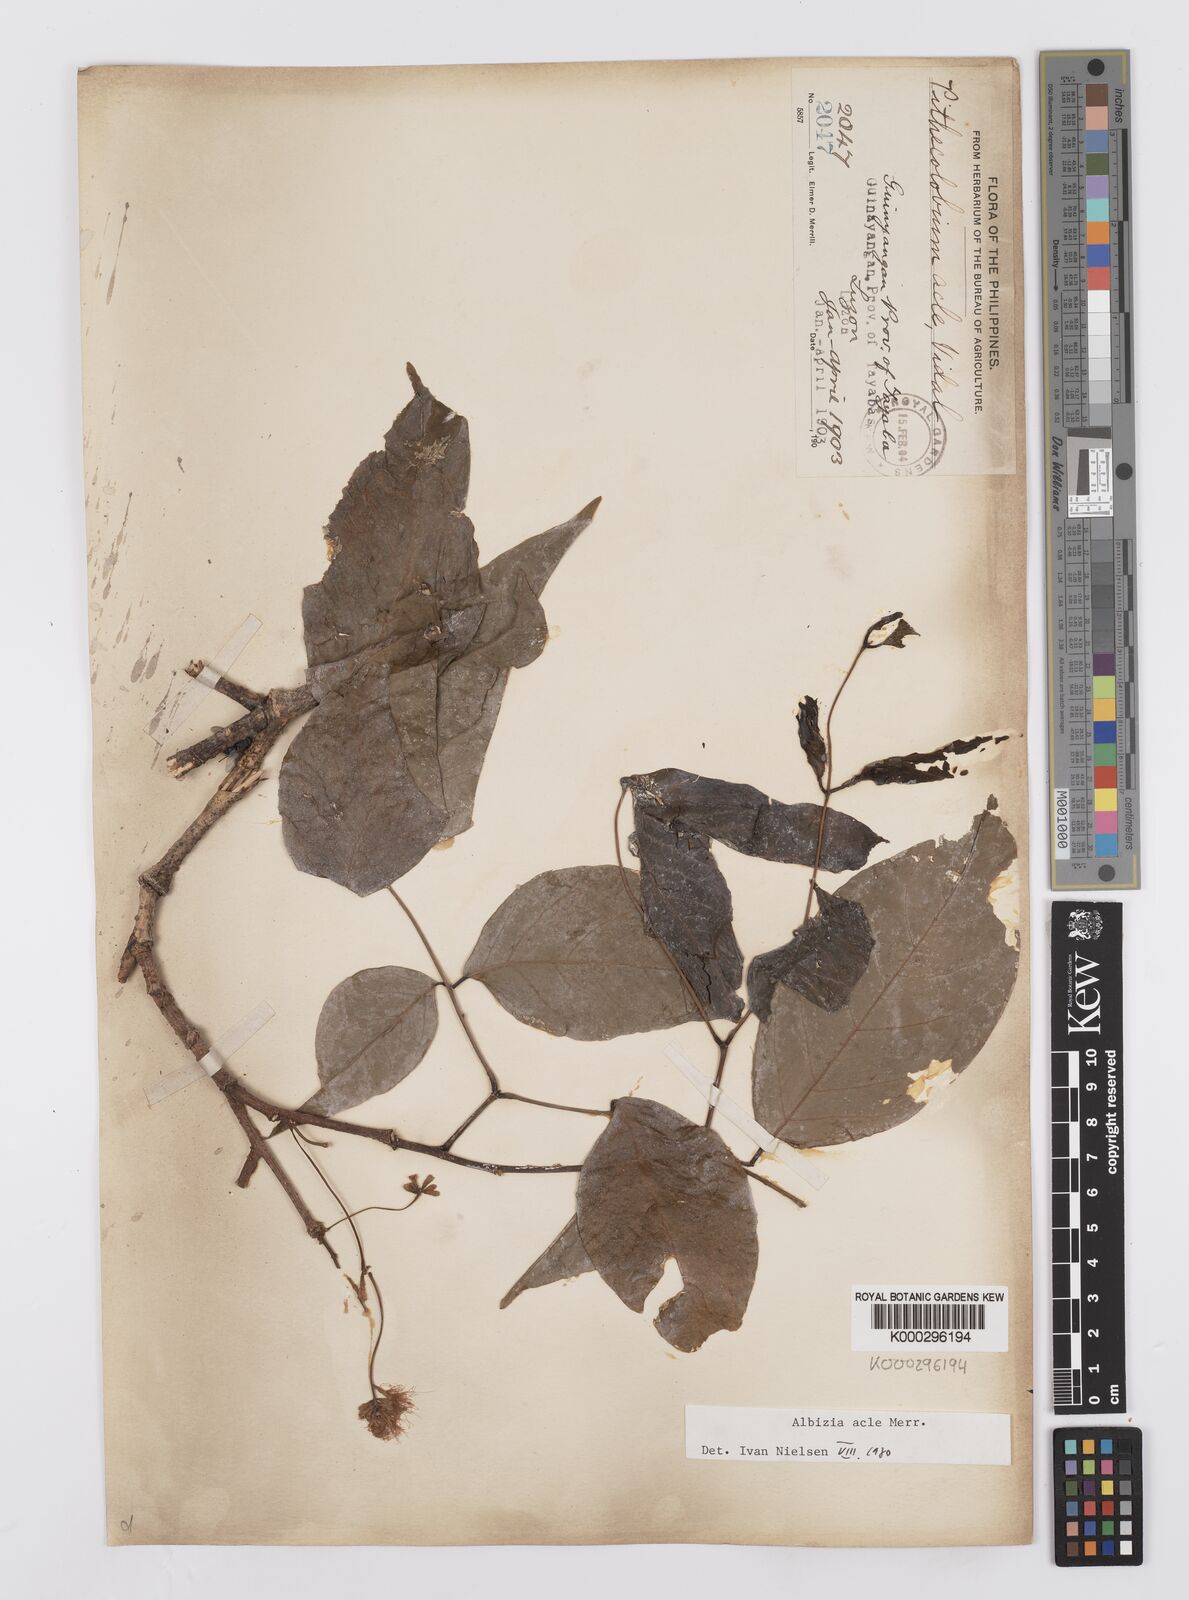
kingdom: Plantae
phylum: Tracheophyta
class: Magnoliopsida
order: Fabales
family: Fabaceae
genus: Albizia
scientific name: Albizia acle
